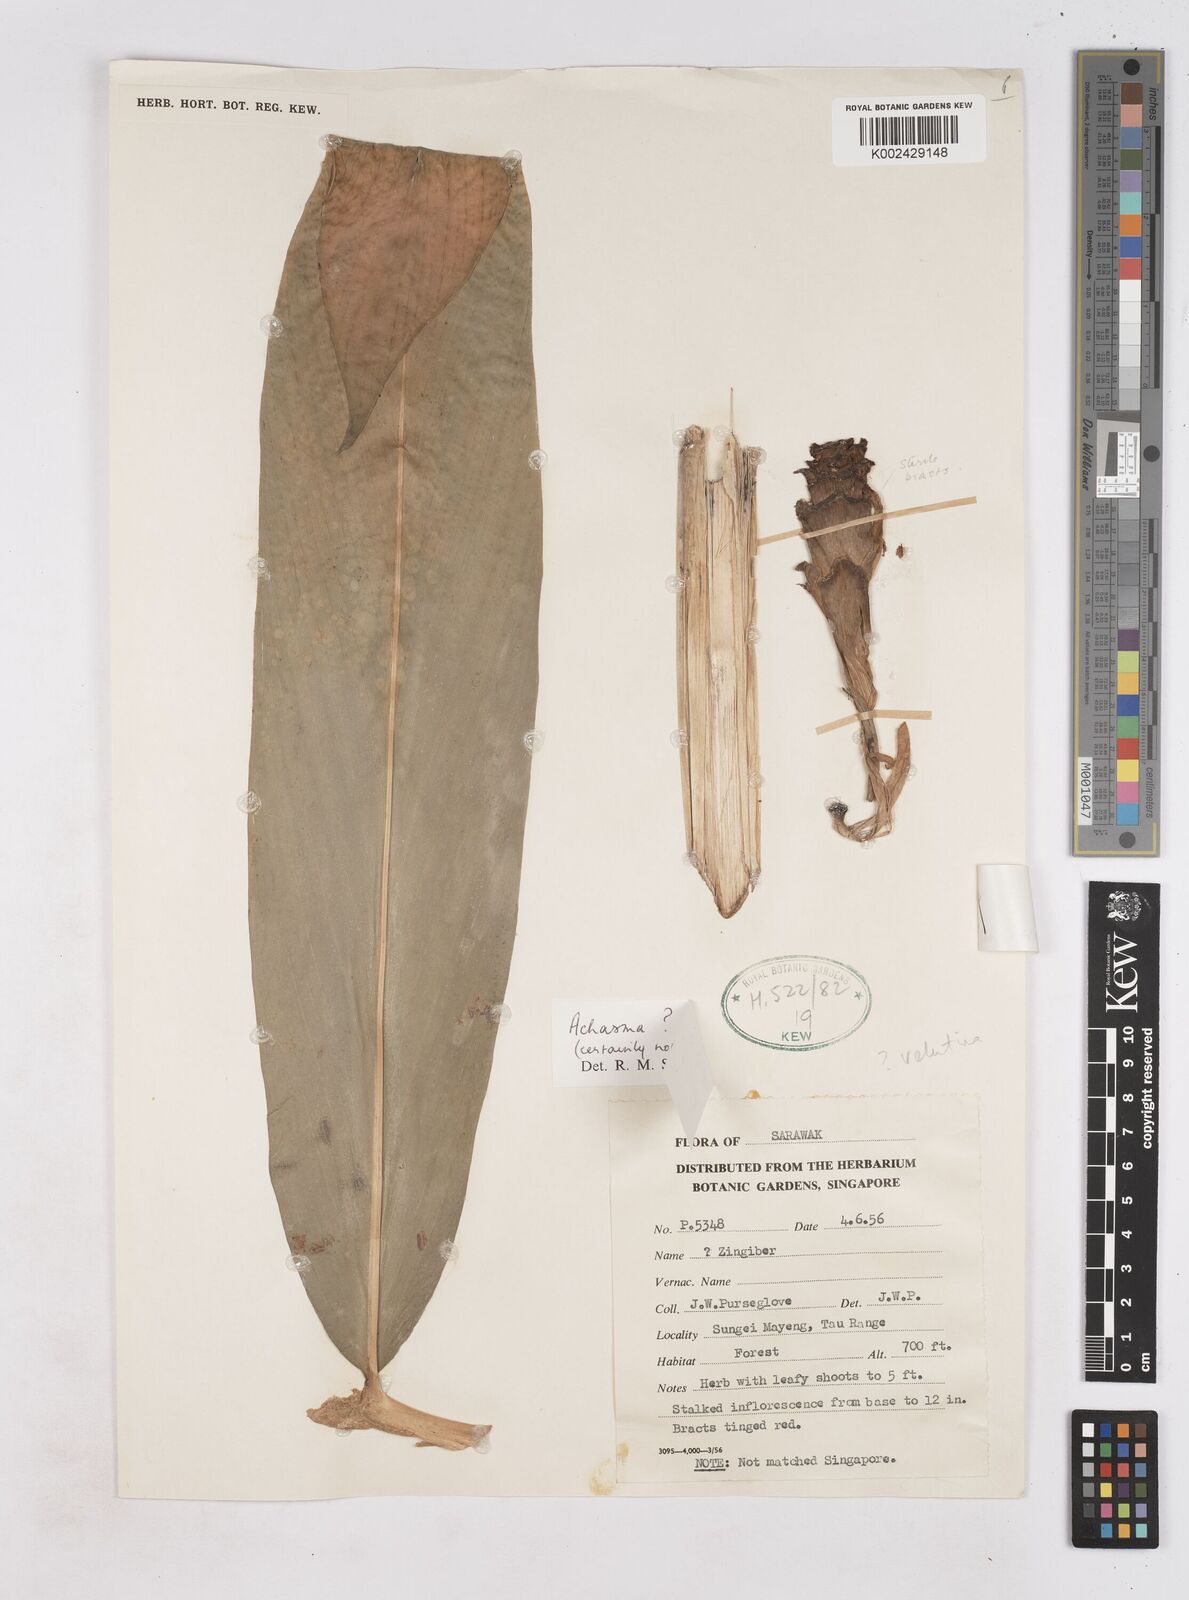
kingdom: Plantae
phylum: Tracheophyta
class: Liliopsida
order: Zingiberales
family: Zingiberaceae
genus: Zingiber
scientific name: Zingiber
